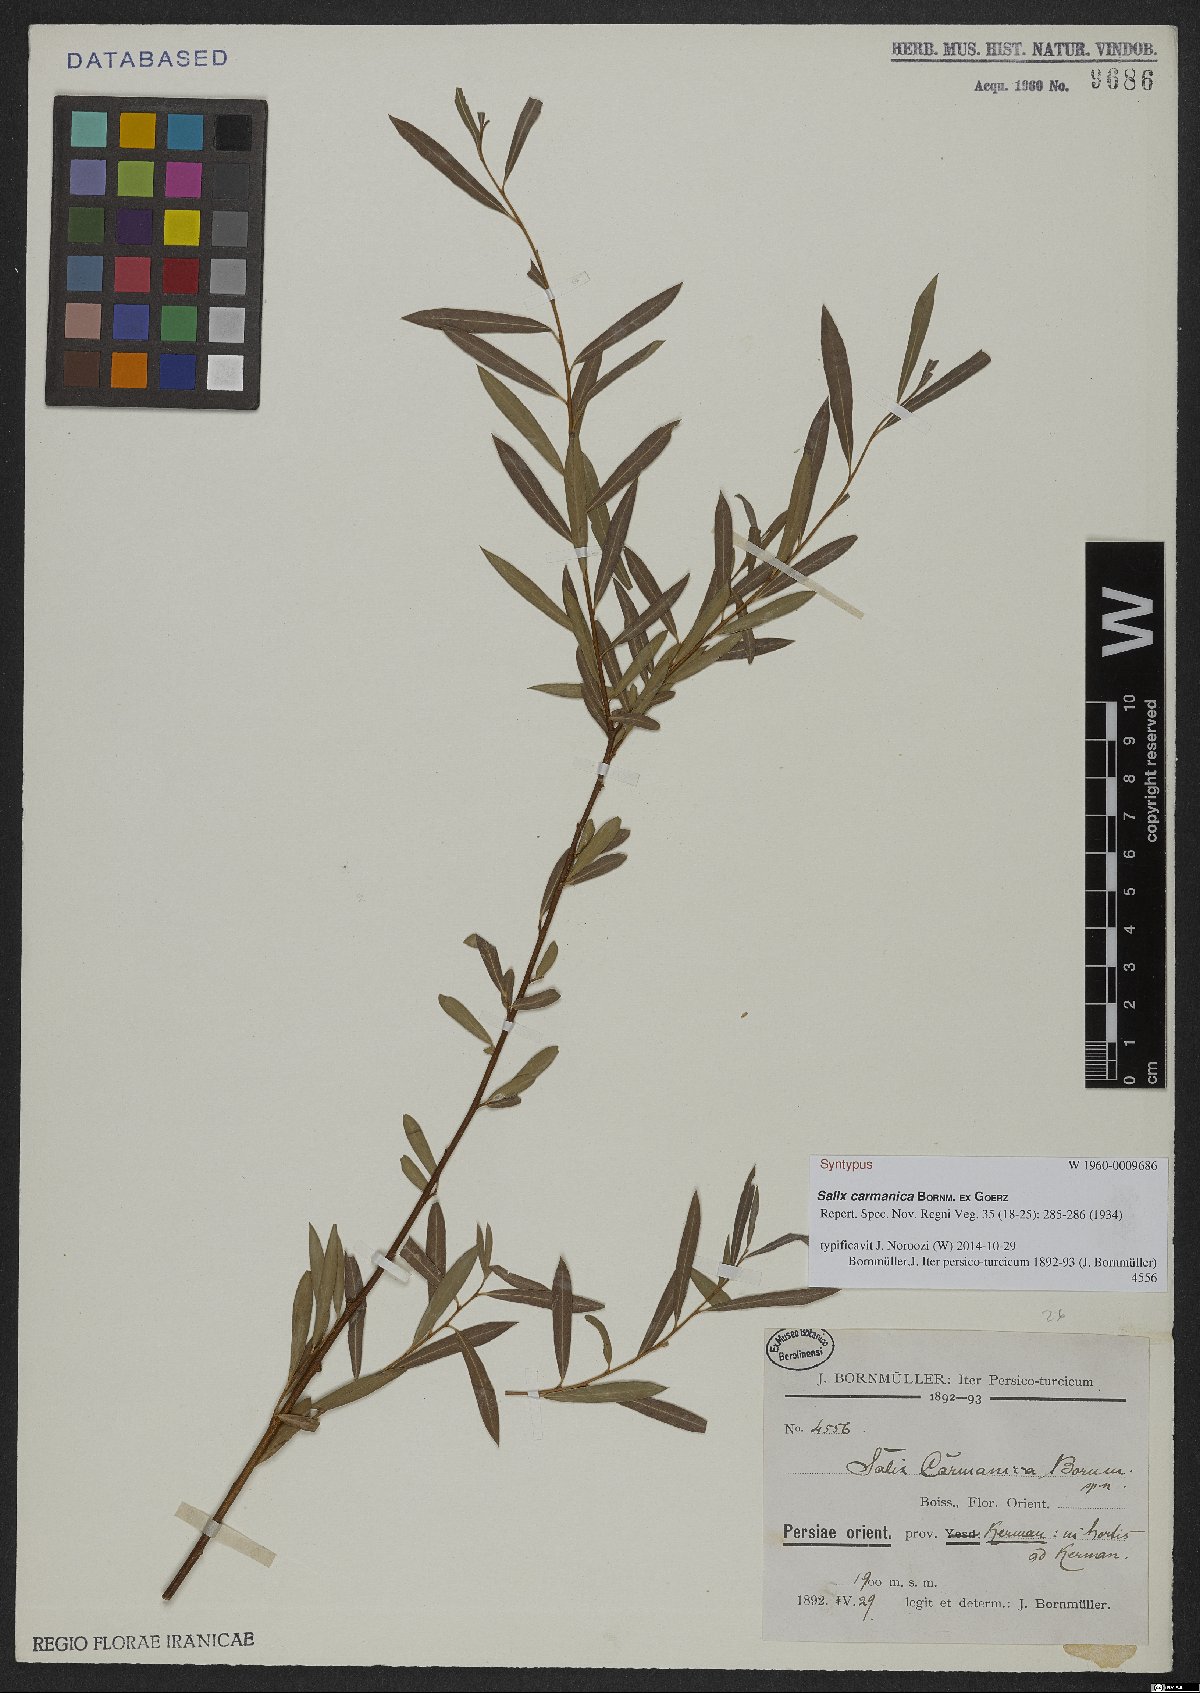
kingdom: Plantae
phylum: Tracheophyta
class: Magnoliopsida
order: Malpighiales
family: Salicaceae
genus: Salix
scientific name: Salix carmanica
